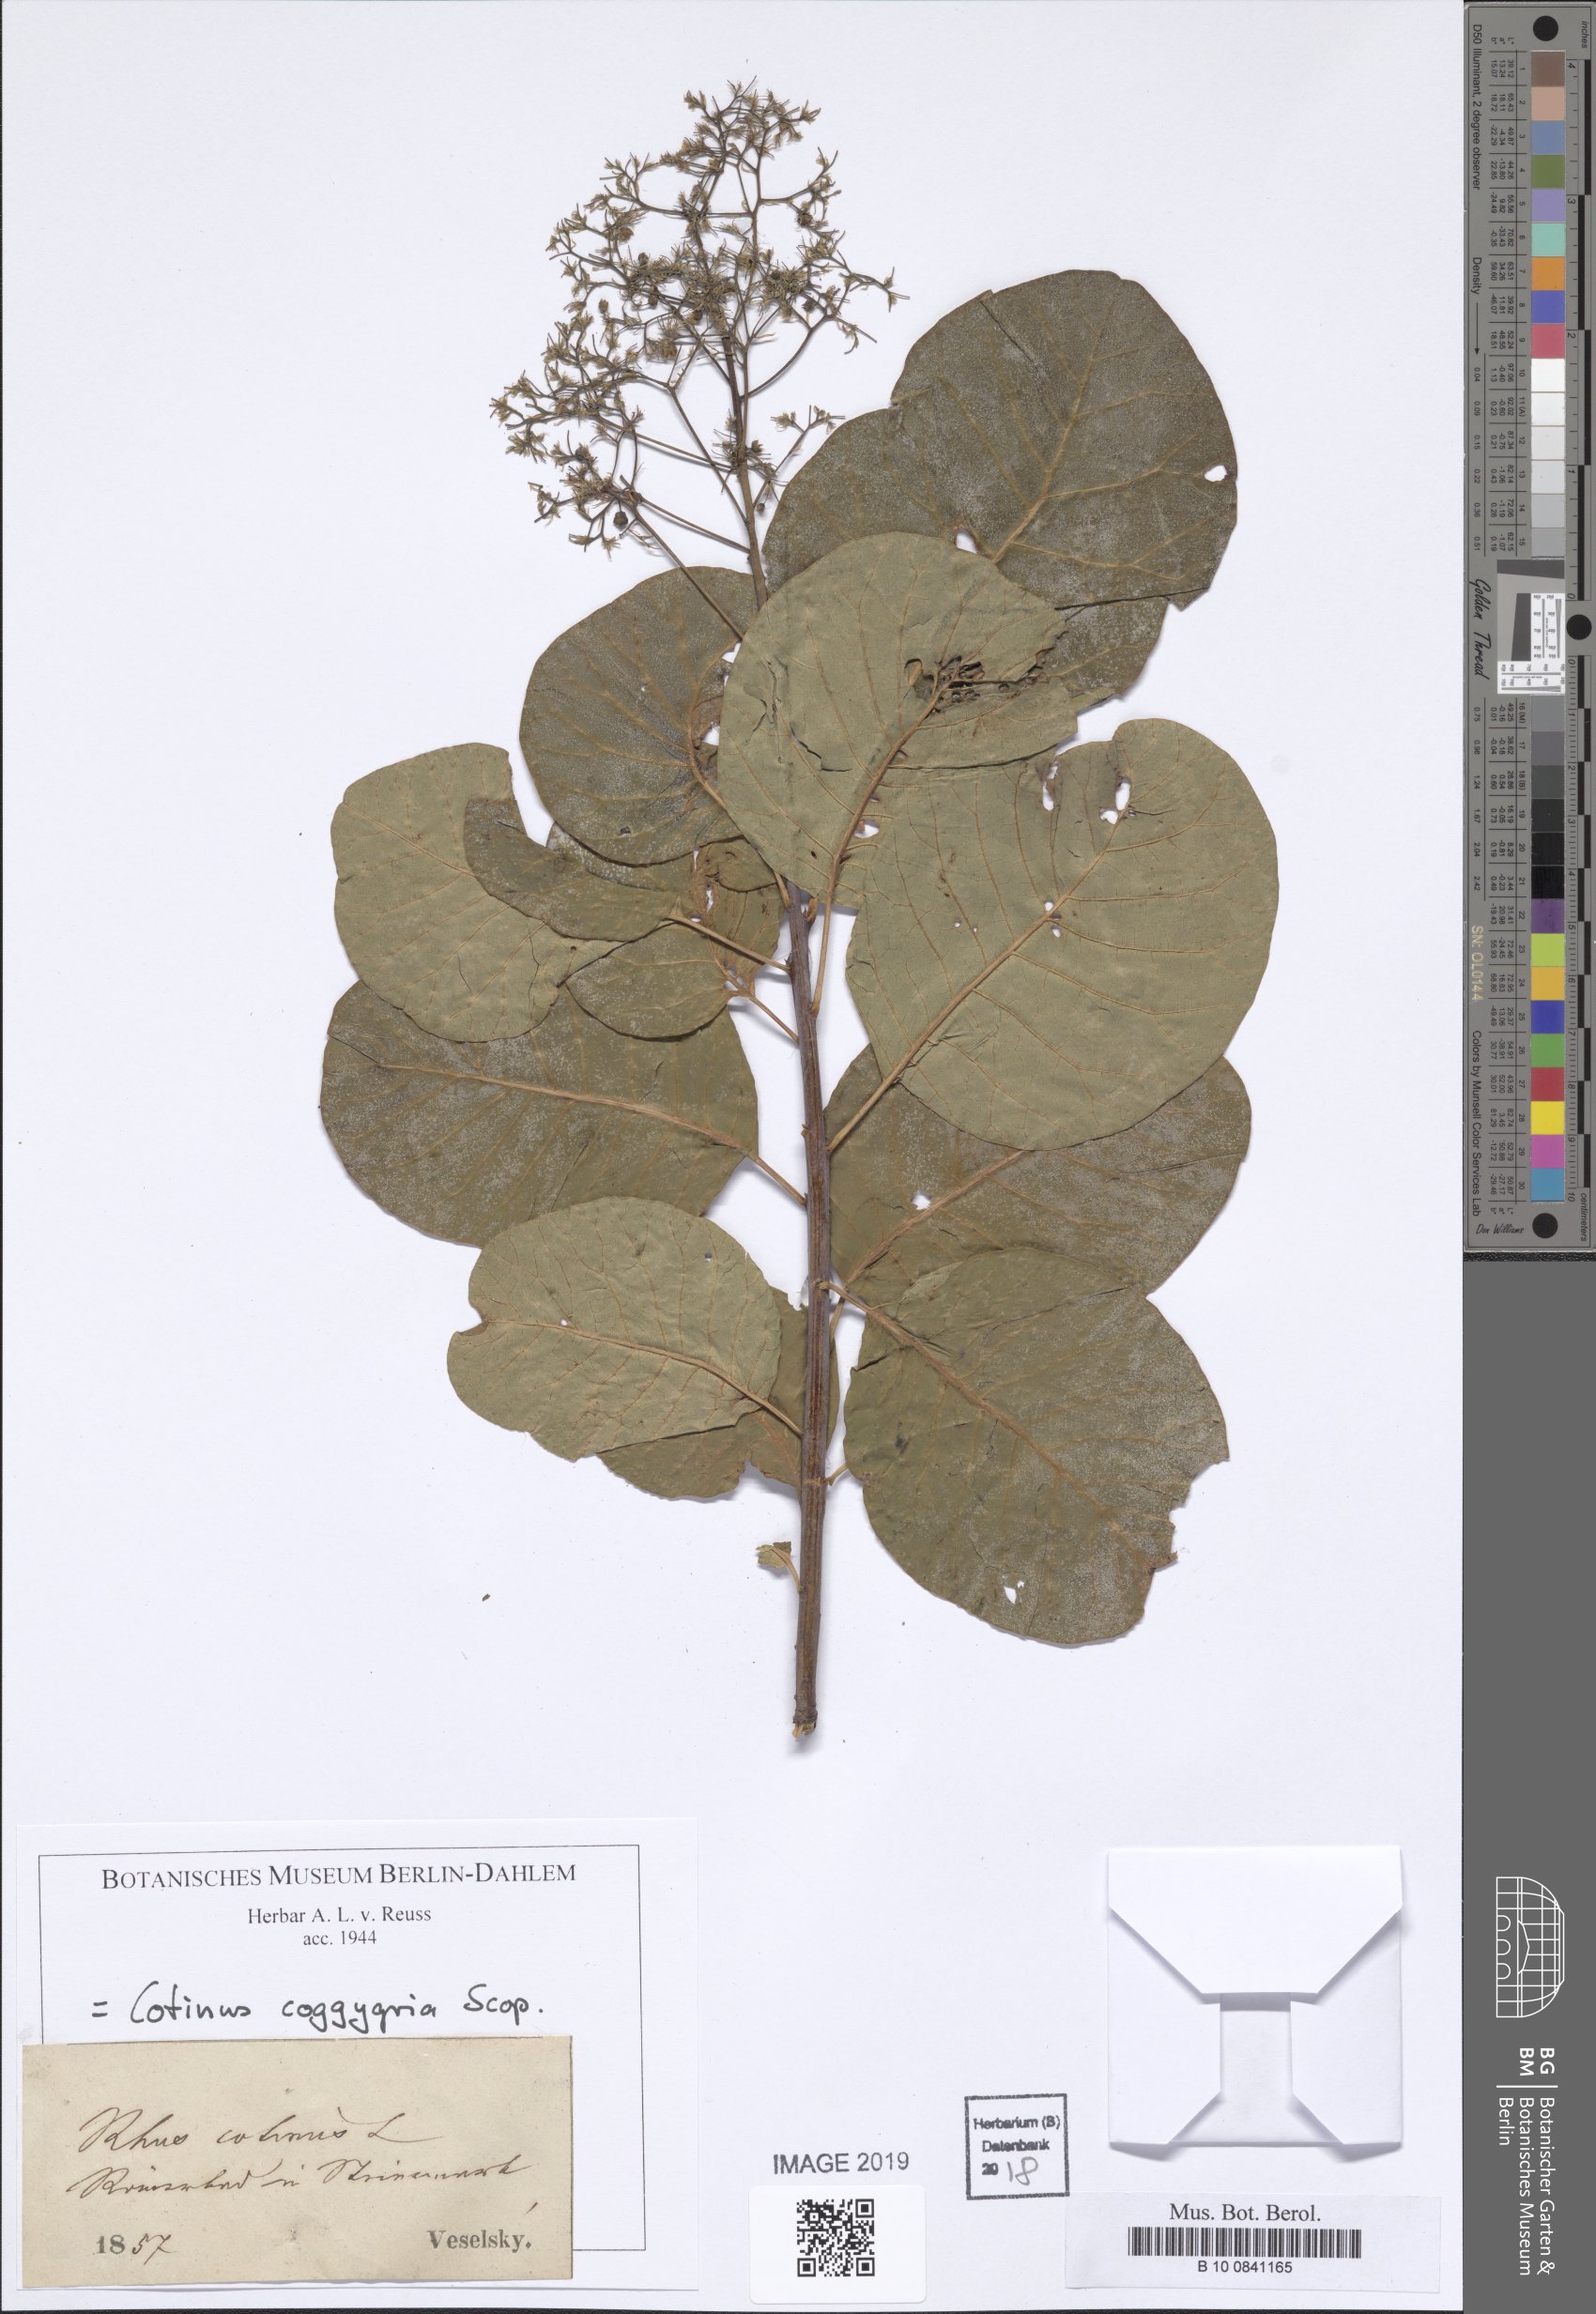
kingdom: Plantae
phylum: Tracheophyta
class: Magnoliopsida
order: Sapindales
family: Anacardiaceae
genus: Cotinus
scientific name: Cotinus coggygria
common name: Smoke-tree
